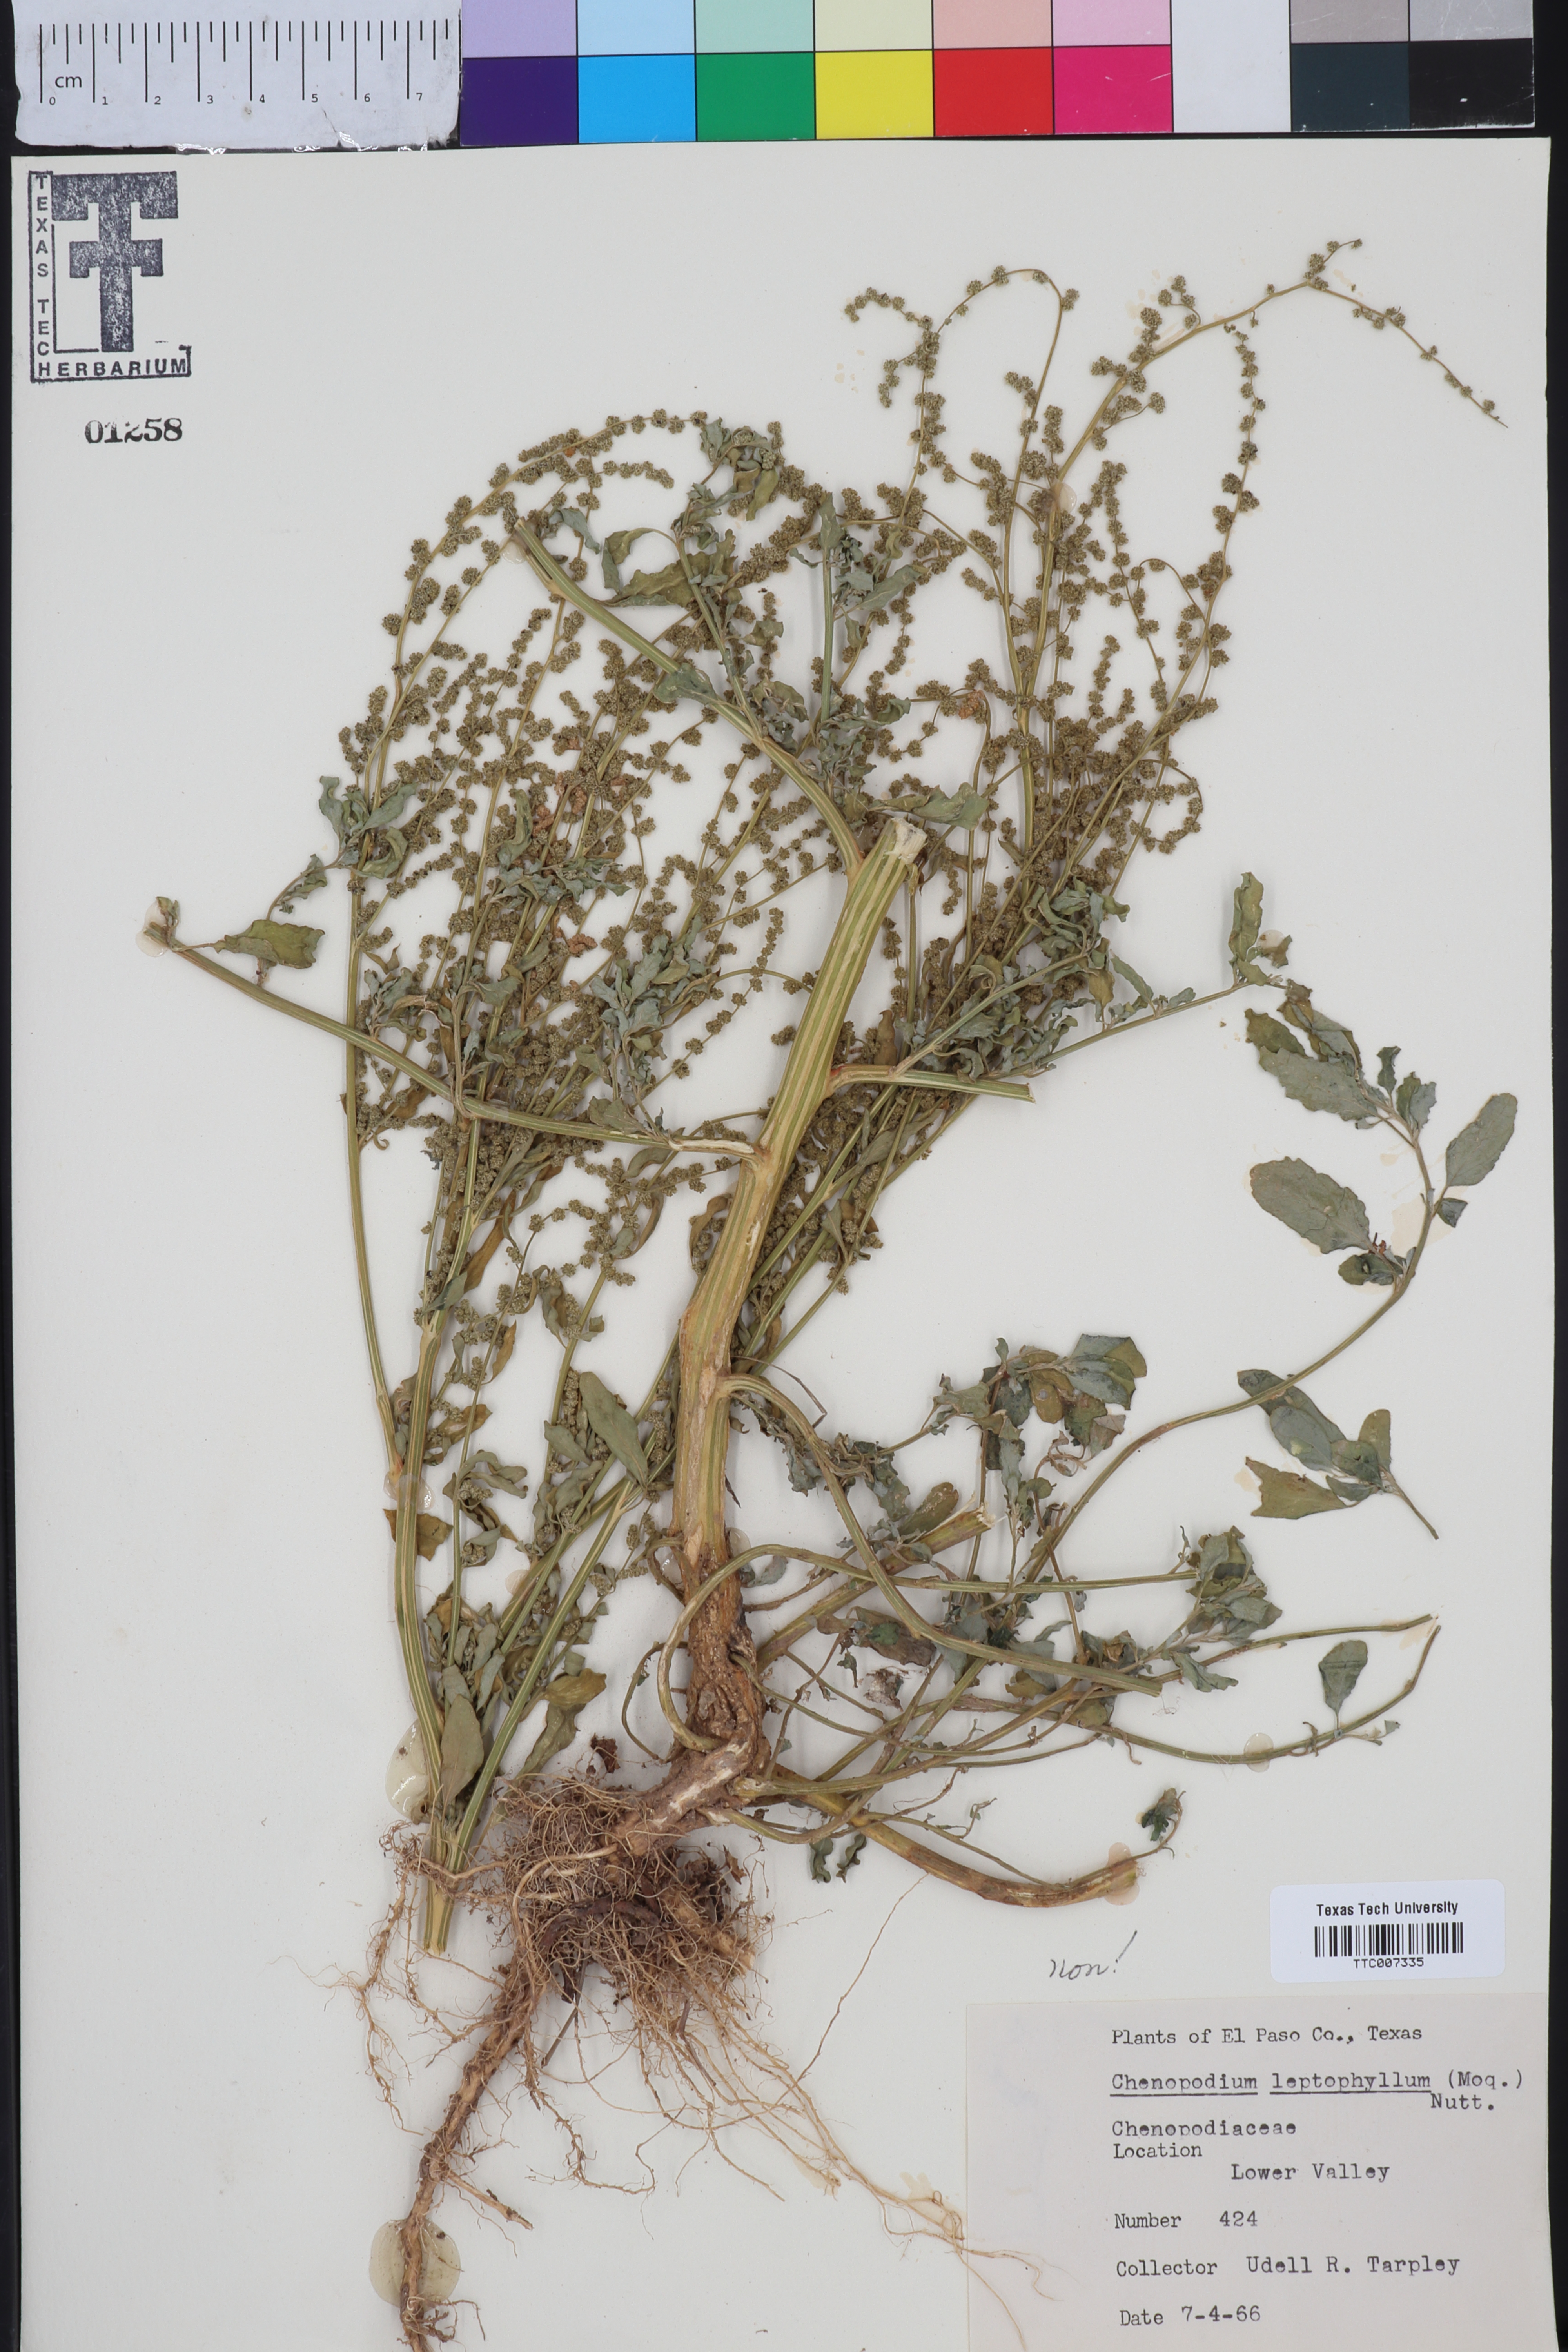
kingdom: Plantae
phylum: Tracheophyta
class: Magnoliopsida
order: Caryophyllales
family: Amaranthaceae
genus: Chenopodium
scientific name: Chenopodium leptophyllum
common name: Narrow-leaf goosefoot
